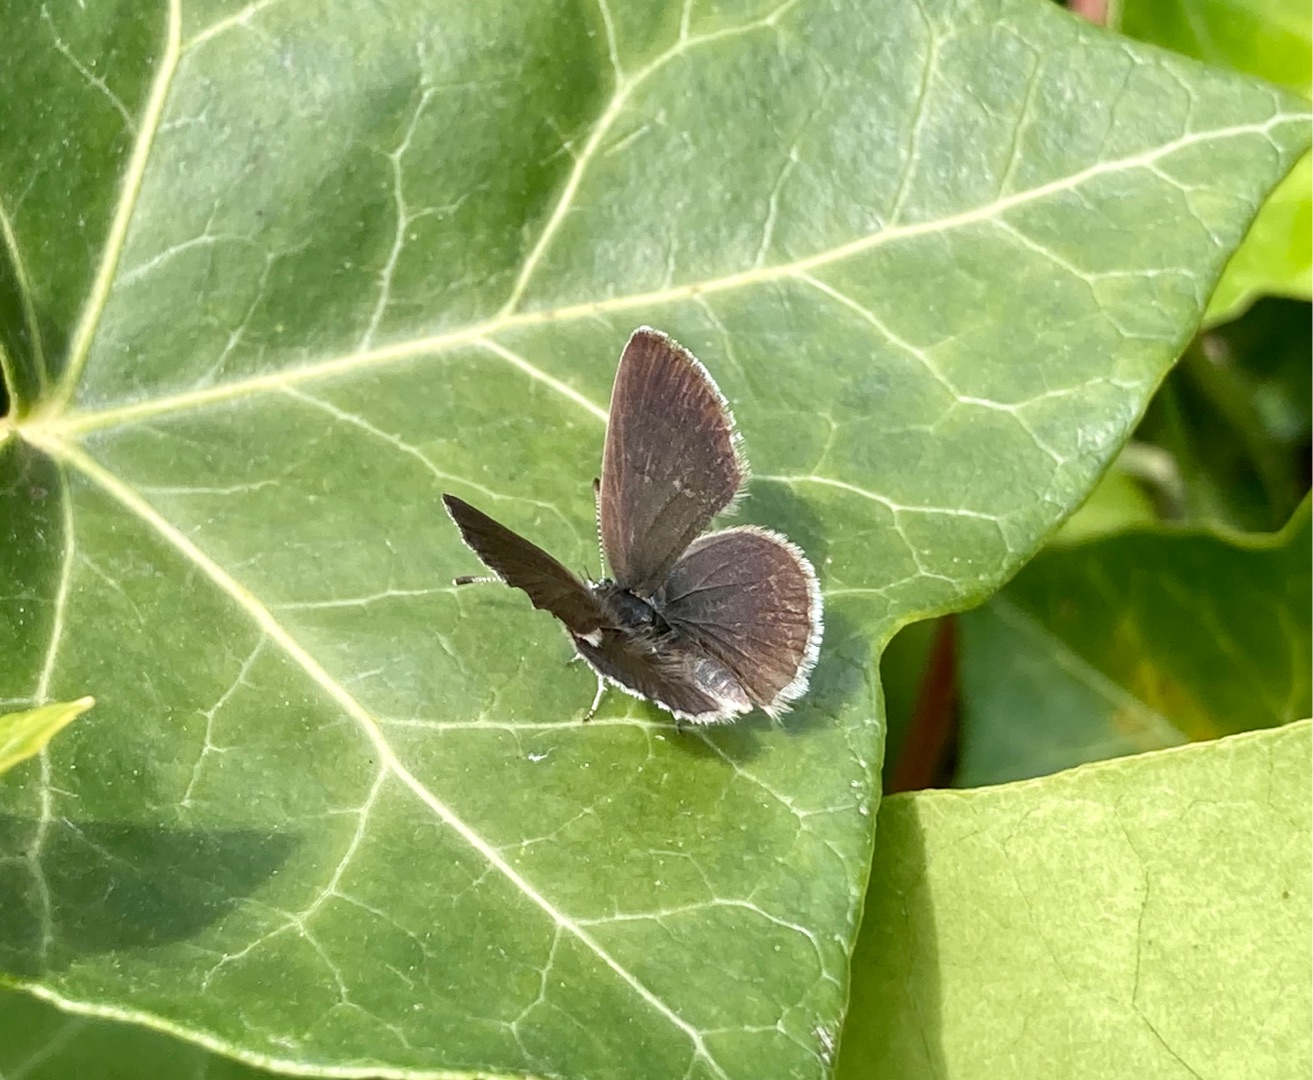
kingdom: Animalia
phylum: Arthropoda
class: Insecta
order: Lepidoptera
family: Lycaenidae
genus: Cupido
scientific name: Cupido minimus
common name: Dværgblåfugl
